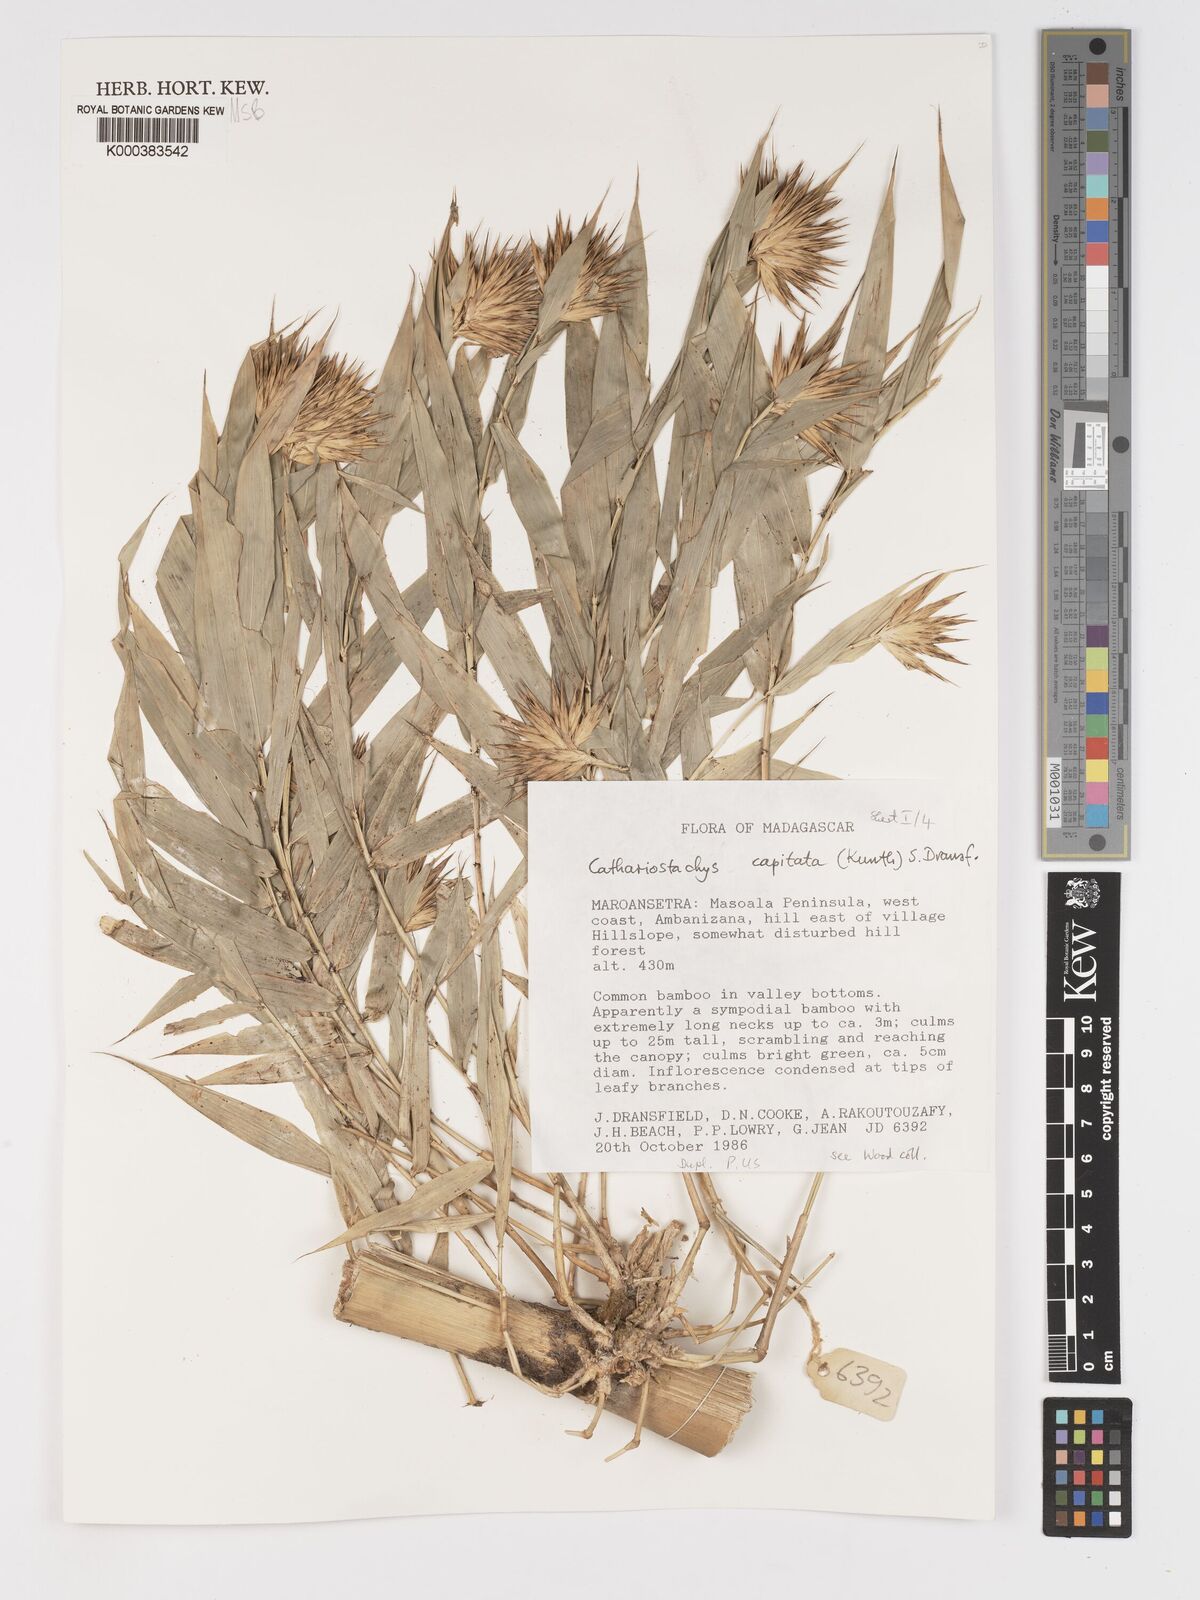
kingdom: Plantae
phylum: Tracheophyta
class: Liliopsida
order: Poales
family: Poaceae
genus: Cathariostachys
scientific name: Cathariostachys capitata
